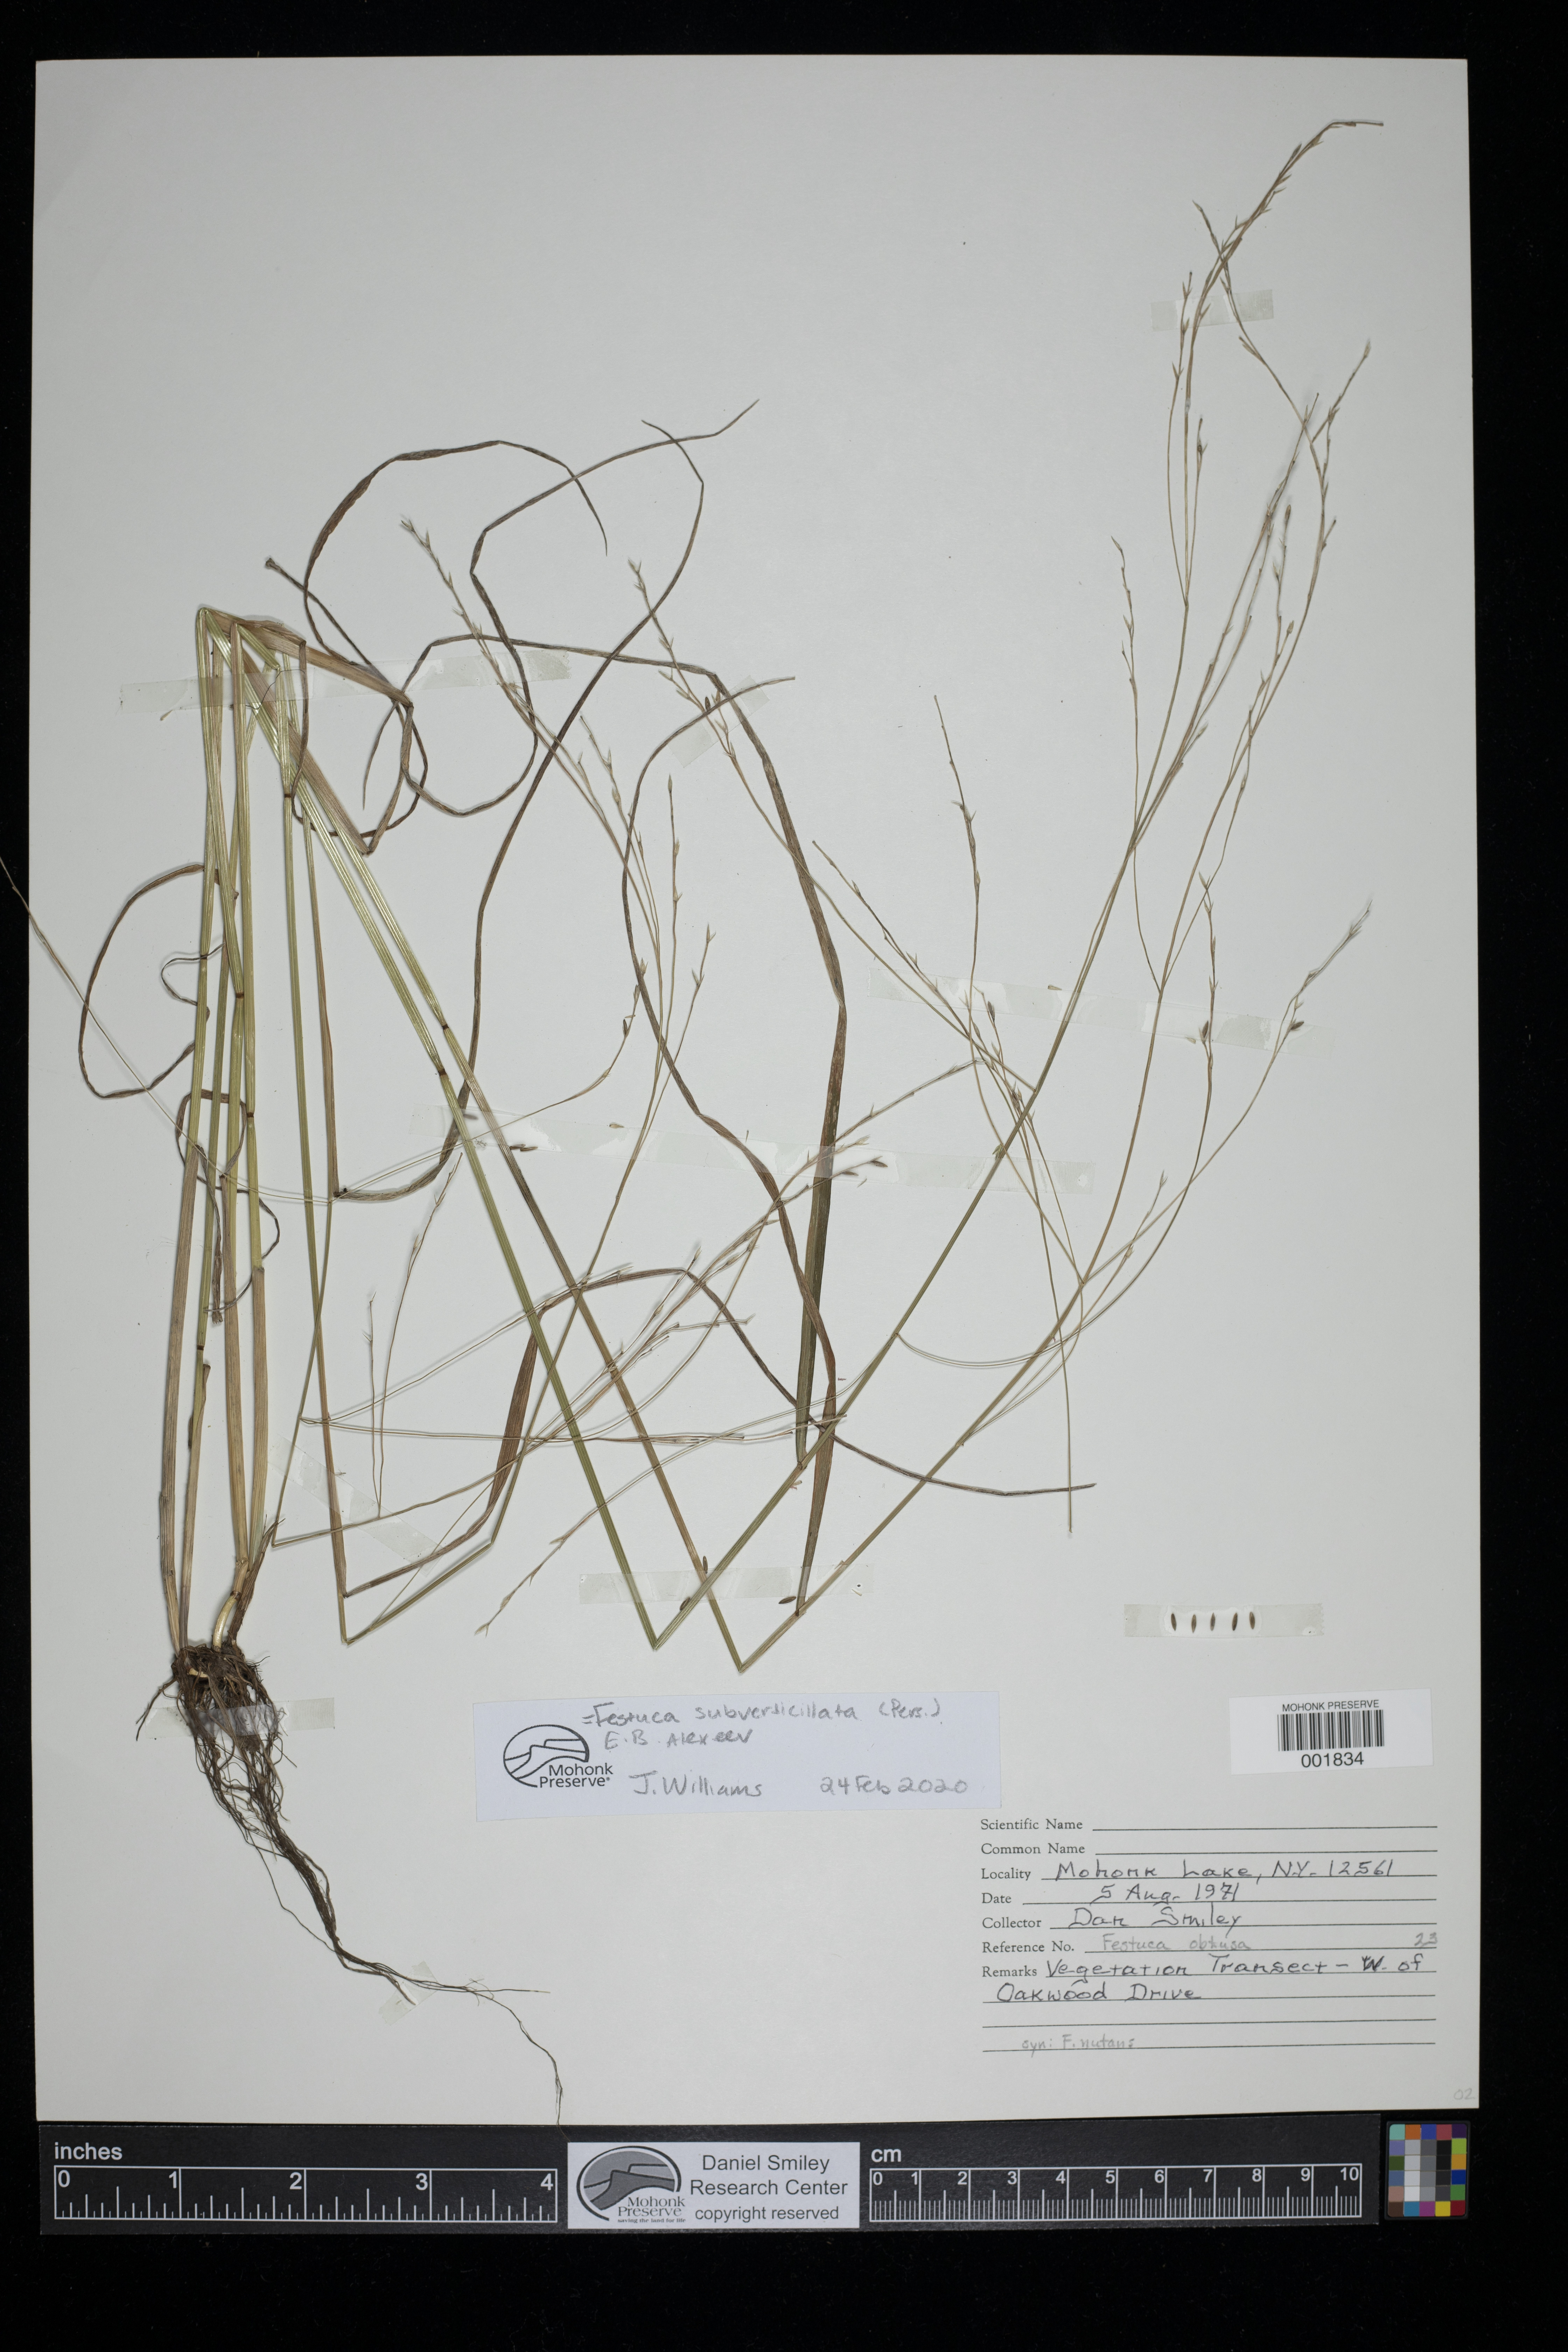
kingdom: Plantae
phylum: Tracheophyta
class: Liliopsida
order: Poales
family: Poaceae
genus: Festuca
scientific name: Festuca subverticillata
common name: Nodding fescue
